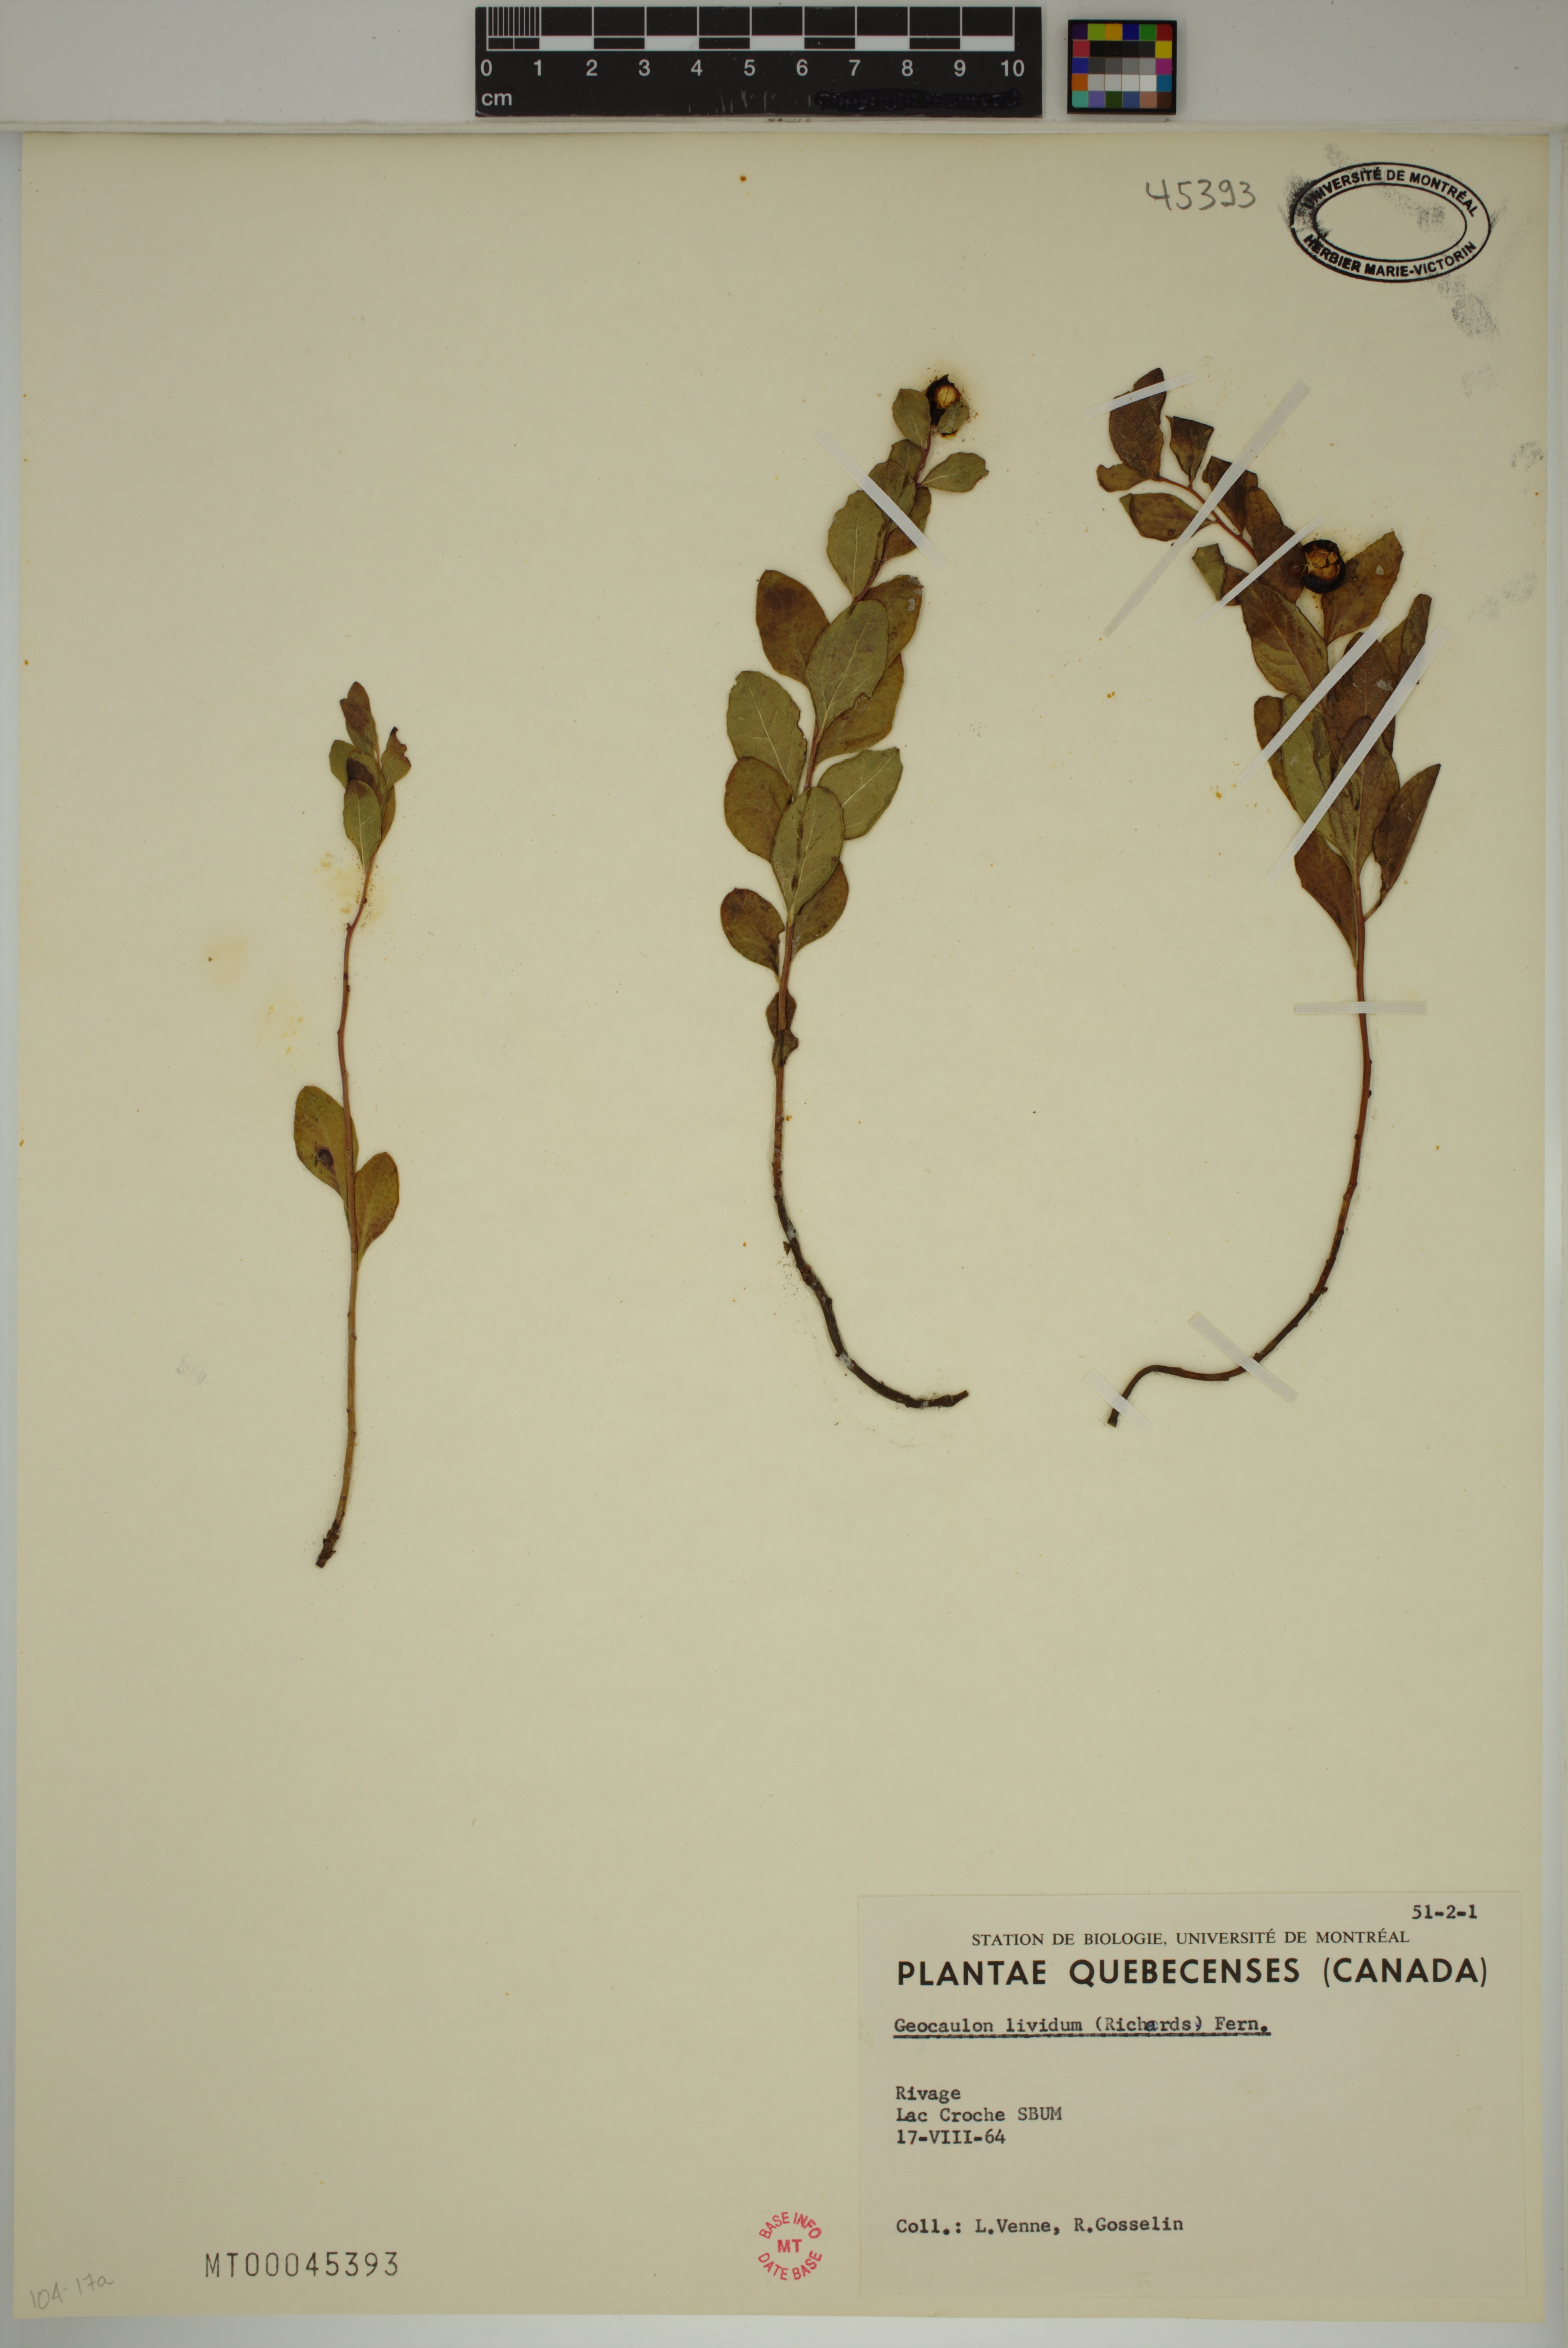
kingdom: Plantae
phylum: Tracheophyta
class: Magnoliopsida
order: Santalales
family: Comandraceae
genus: Geocaulon
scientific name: Geocaulon lividum
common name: Earthberry
